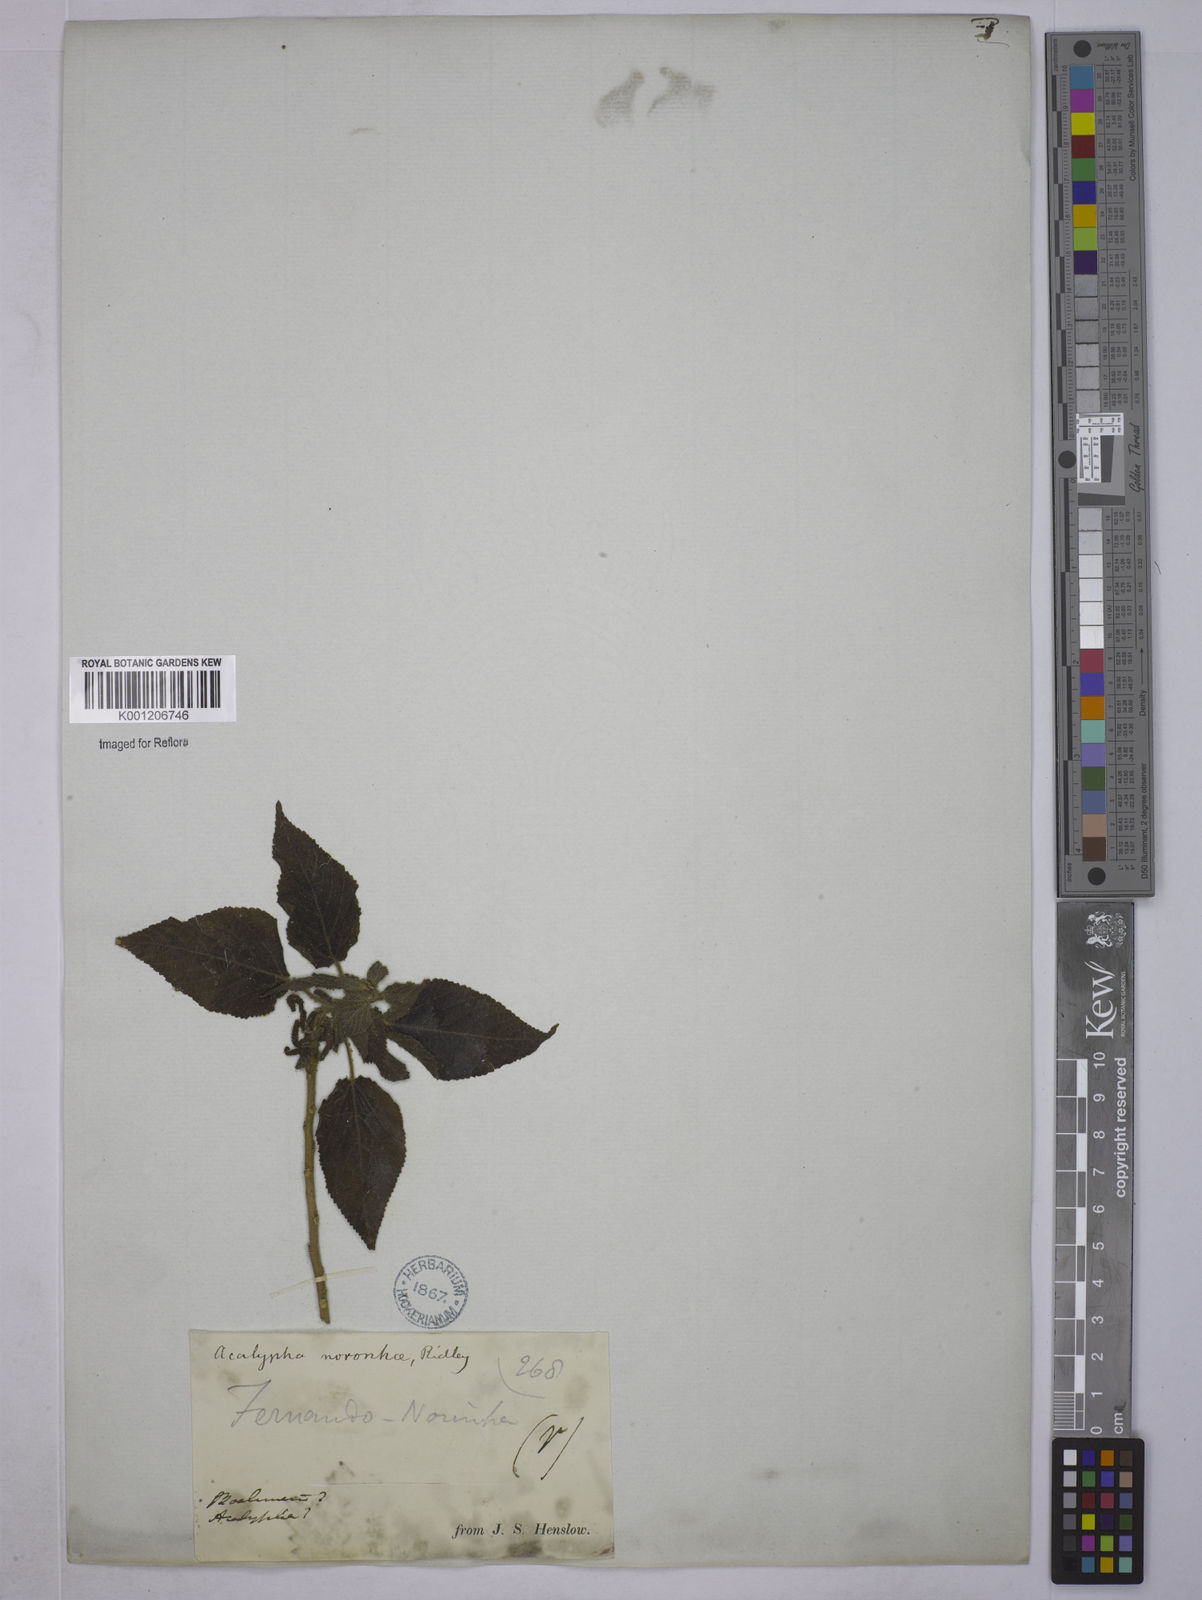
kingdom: Plantae
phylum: Tracheophyta
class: Magnoliopsida
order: Malpighiales
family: Euphorbiaceae
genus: Acalypha
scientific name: Acalypha noronhae
